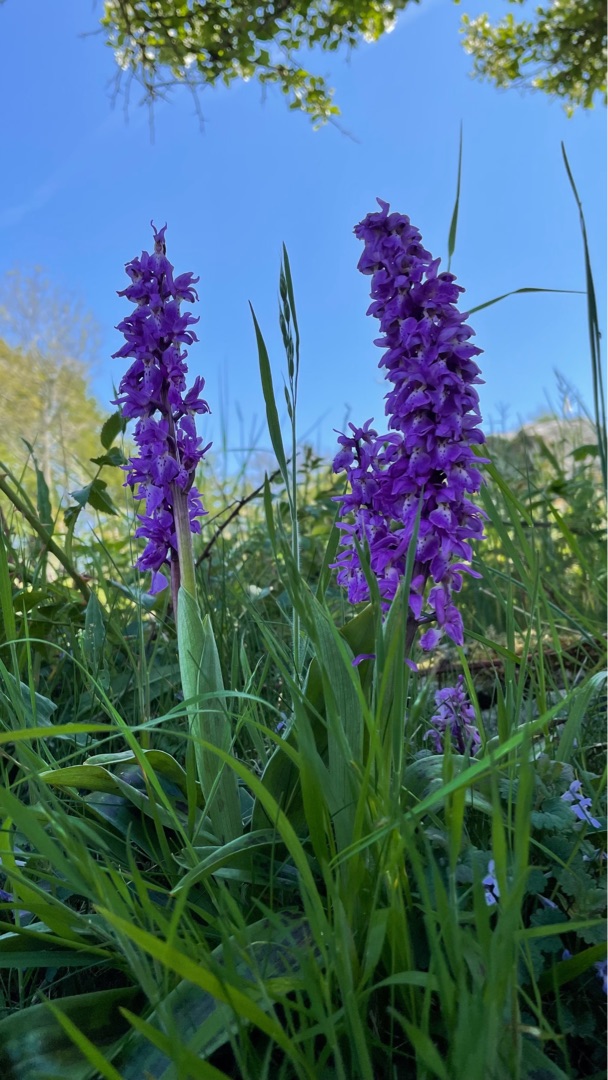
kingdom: Plantae
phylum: Tracheophyta
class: Liliopsida
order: Asparagales
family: Orchidaceae
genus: Orchis
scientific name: Orchis mascula
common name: Tyndakset gøgeurt
